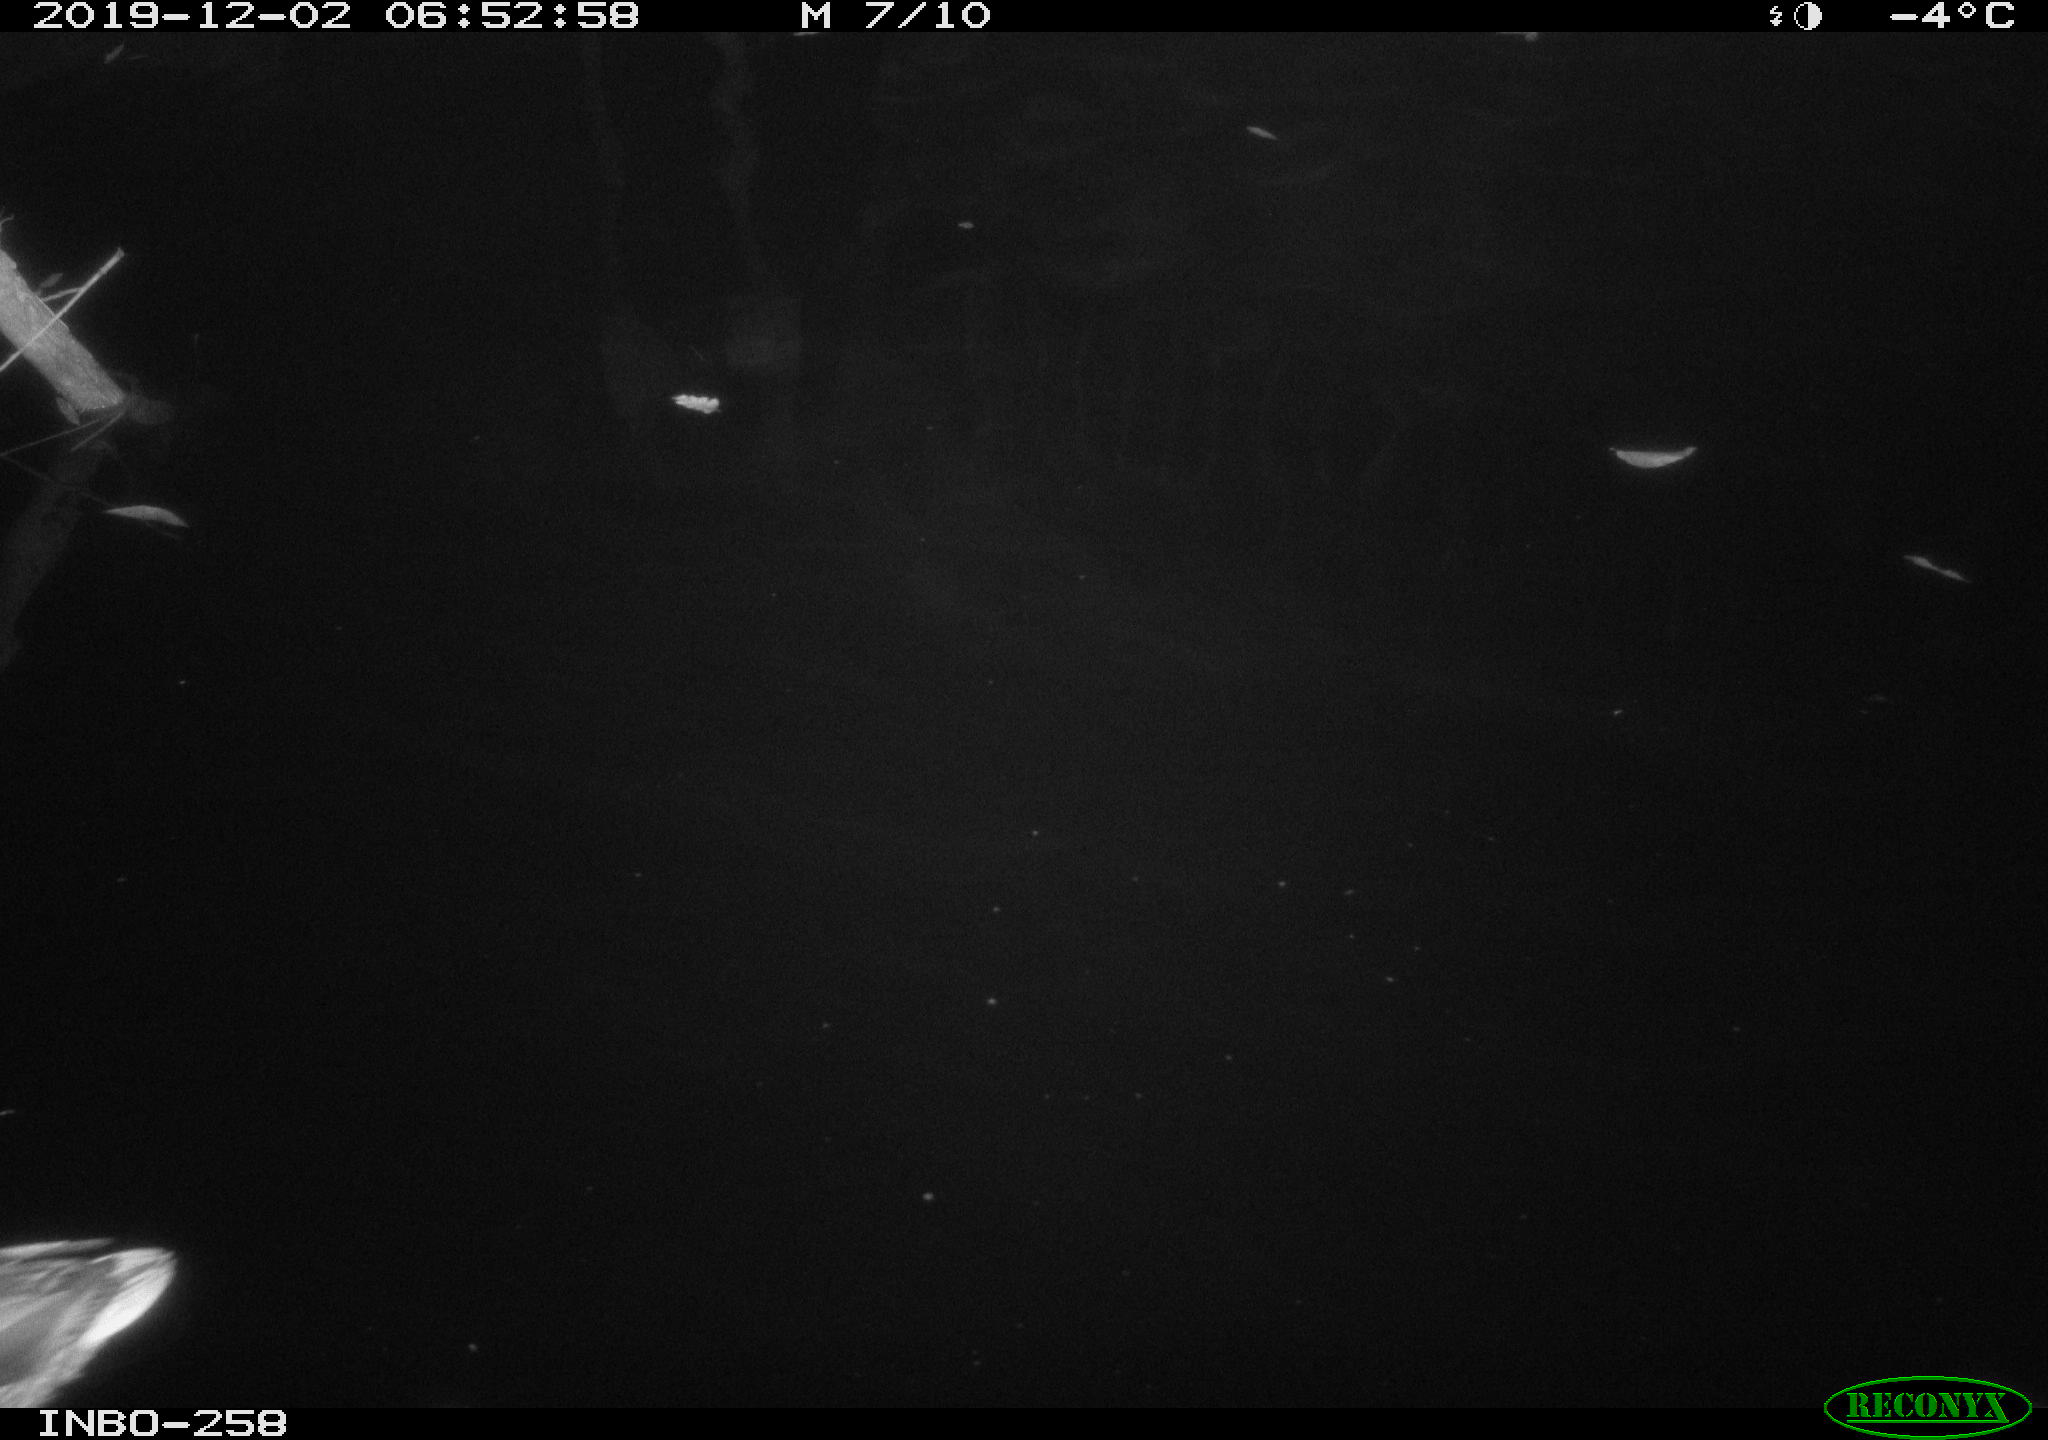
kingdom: Animalia
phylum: Chordata
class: Aves
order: Anseriformes
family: Anatidae
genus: Anas
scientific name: Anas platyrhynchos
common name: Mallard
